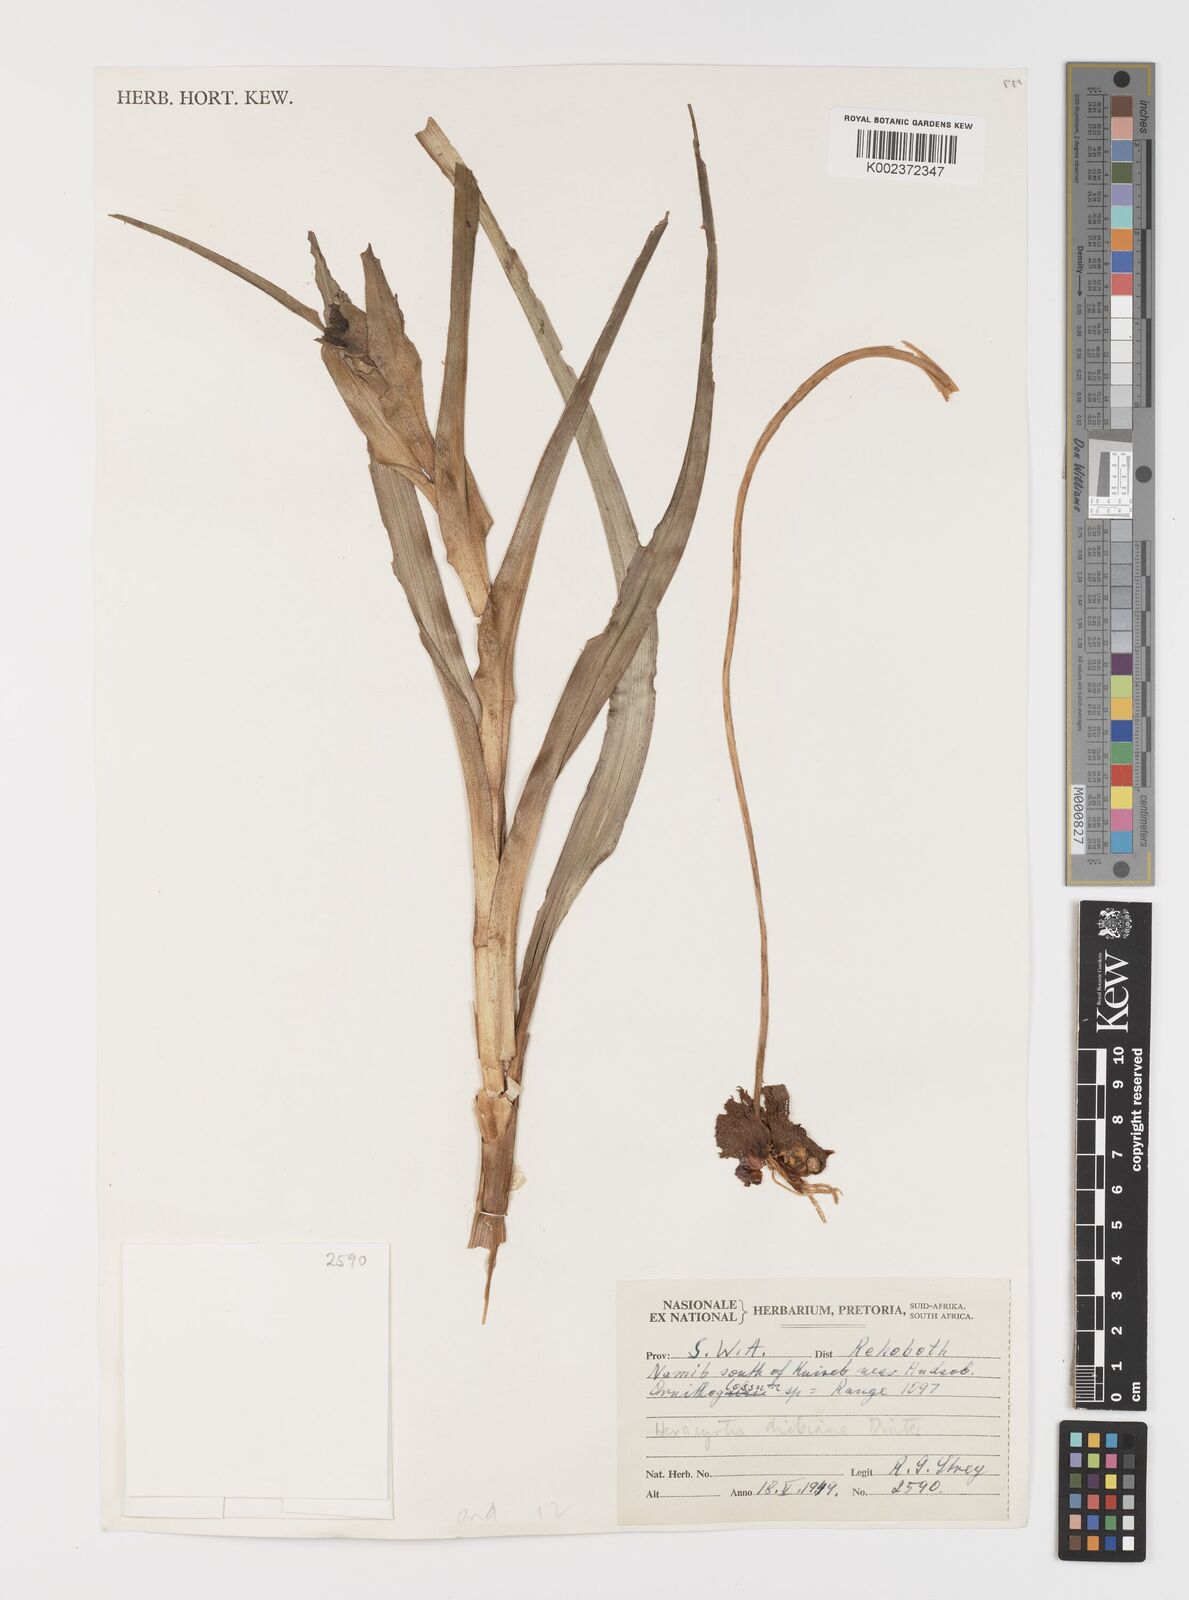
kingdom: Plantae
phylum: Tracheophyta
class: Liliopsida
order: Liliales
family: Colchicaceae
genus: Hexacyrtis
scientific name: Hexacyrtis dickiana
